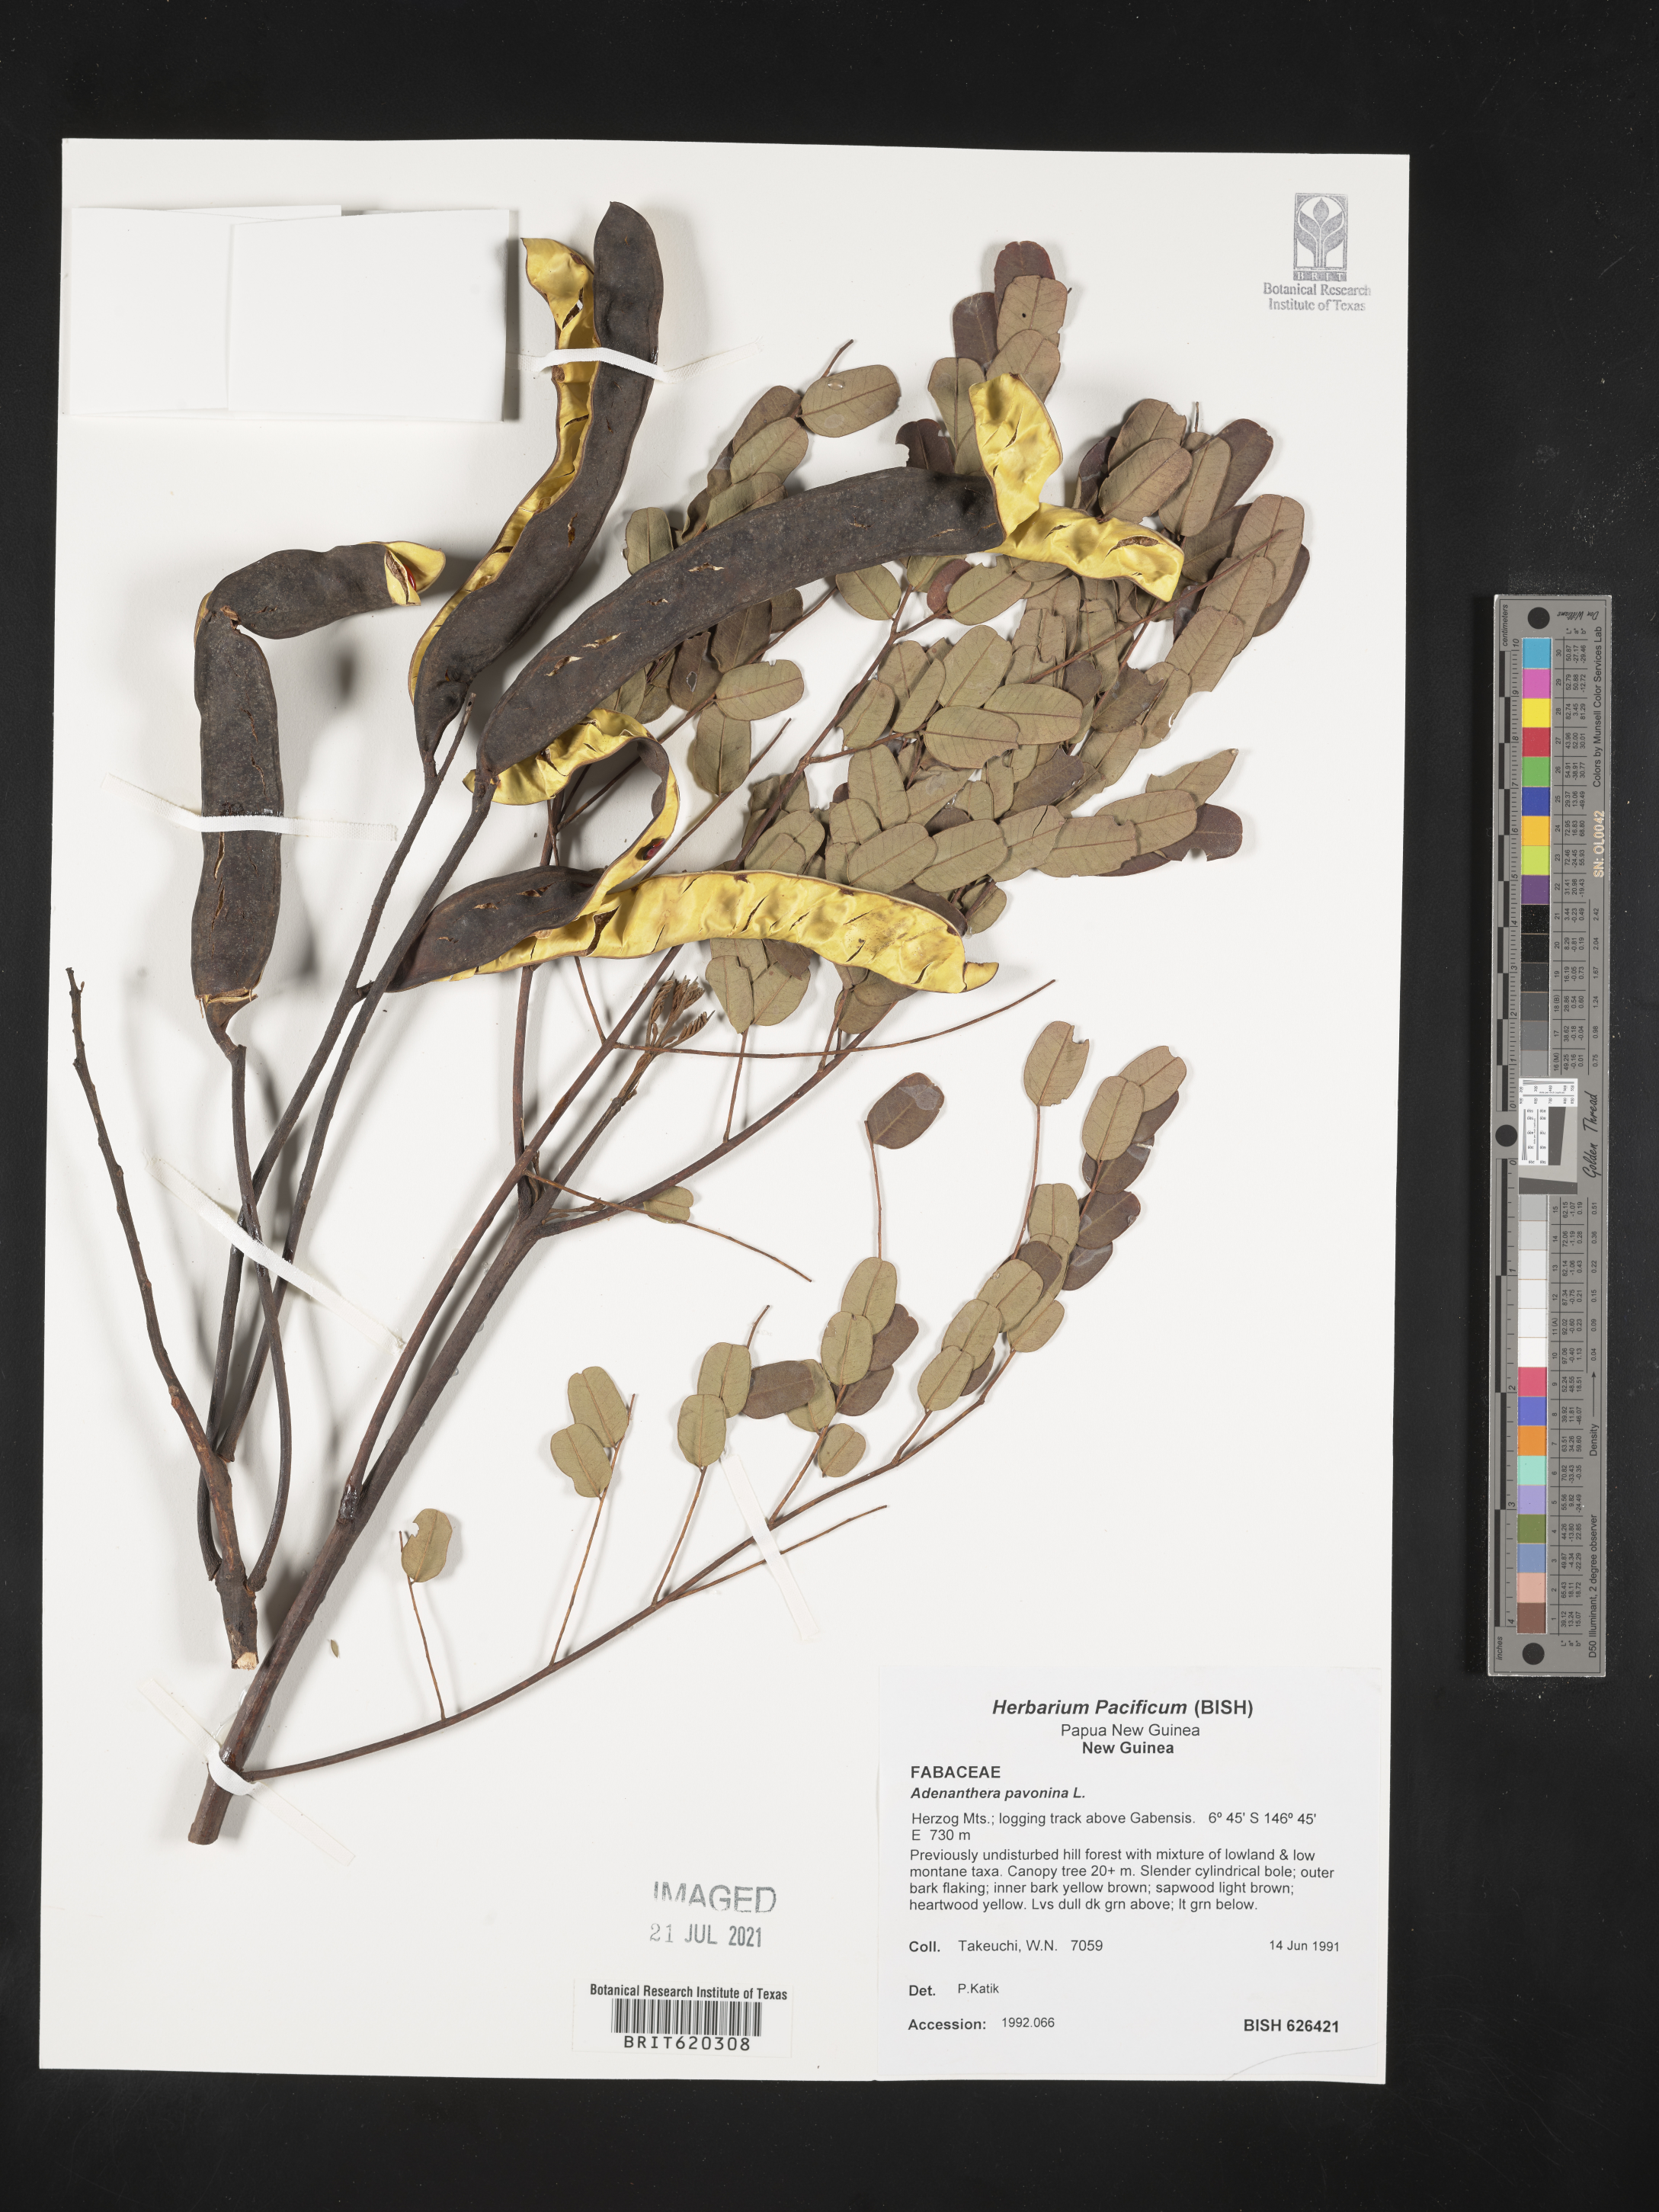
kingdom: Plantae
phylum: Tracheophyta
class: Magnoliopsida
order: Fabales
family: Fabaceae
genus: Adenanthera
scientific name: Adenanthera pavonina
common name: Red beadtree
